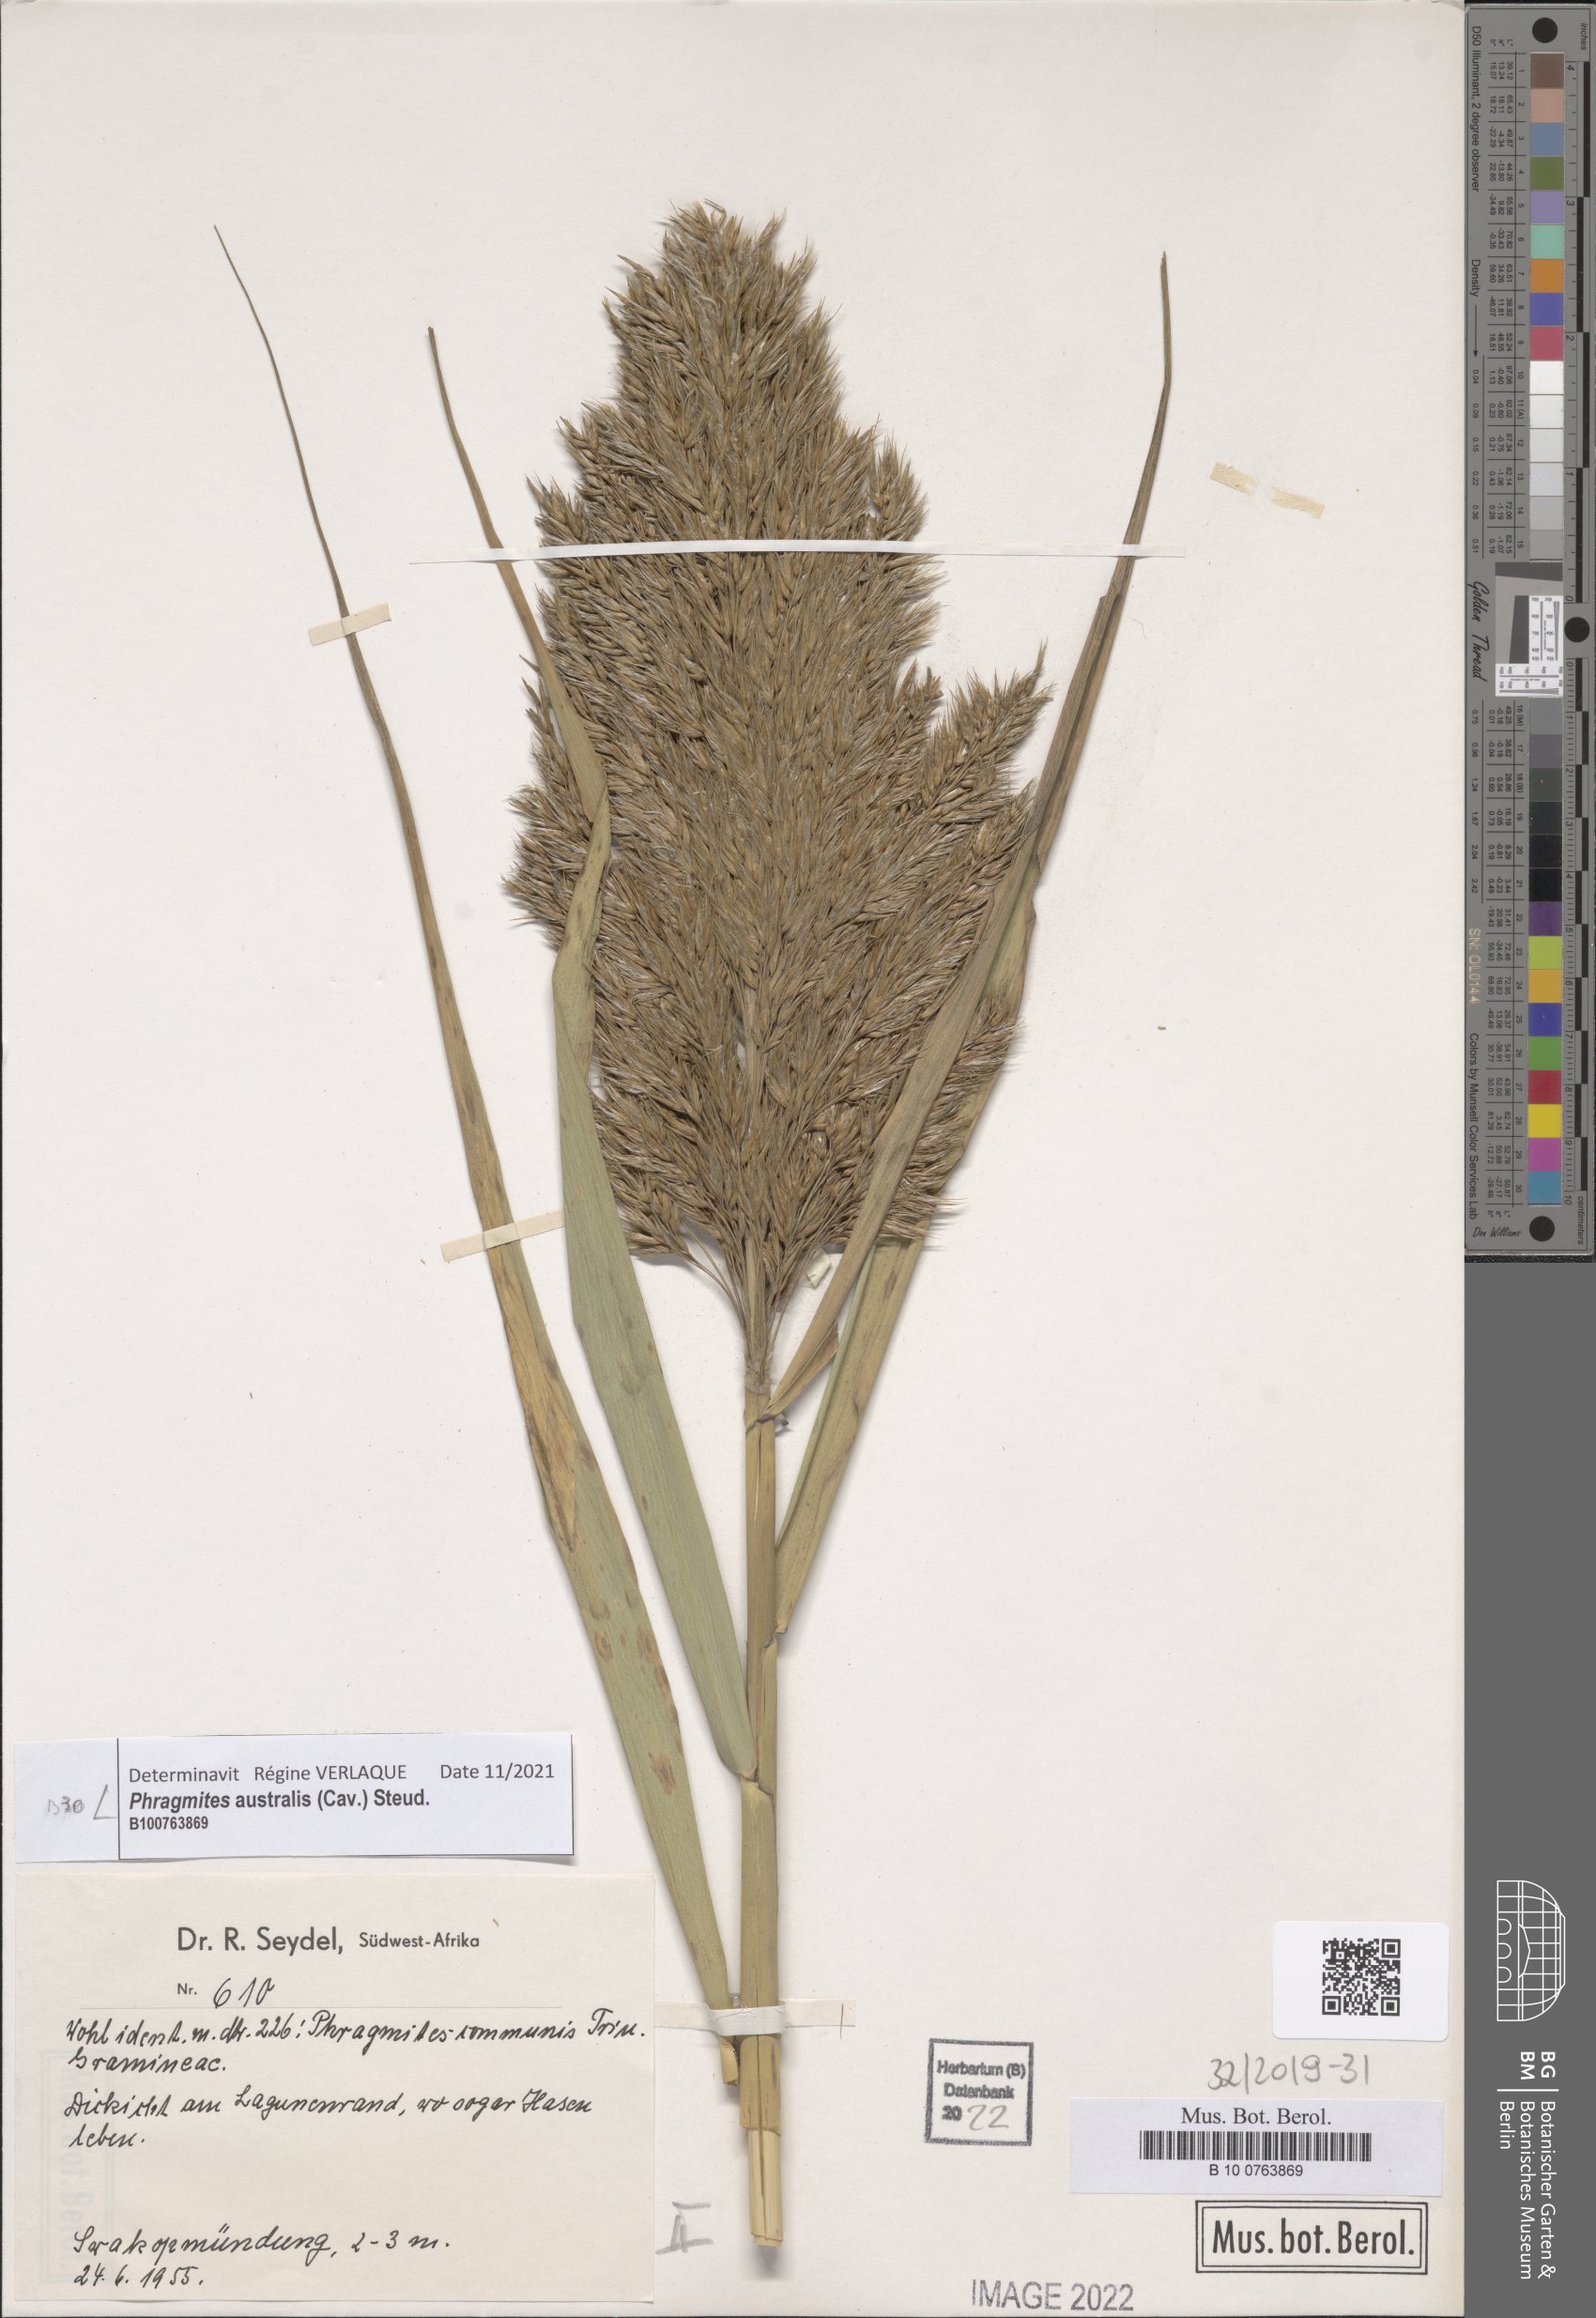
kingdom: Plantae
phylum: Tracheophyta
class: Liliopsida
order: Poales
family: Poaceae
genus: Phragmites
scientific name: Phragmites australis
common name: Common reed
